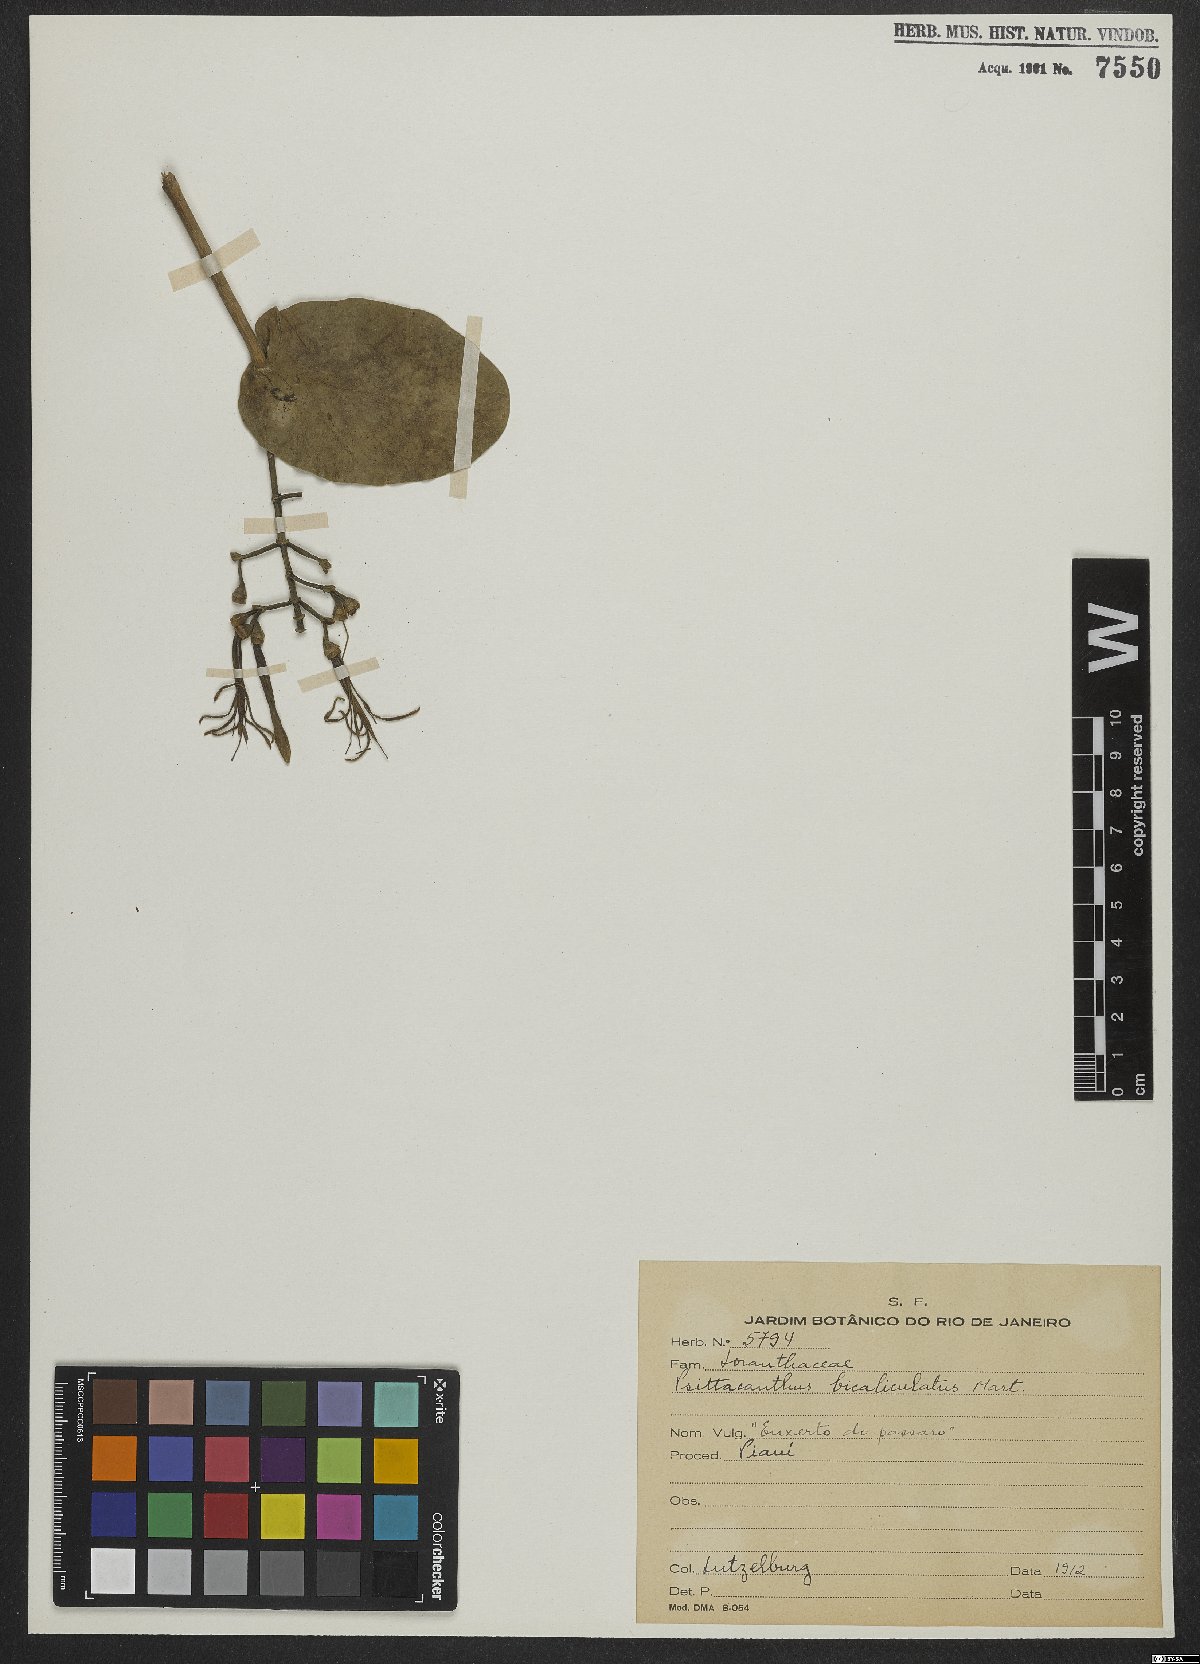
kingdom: Plantae
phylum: Tracheophyta
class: Magnoliopsida
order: Santalales
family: Loranthaceae
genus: Psittacanthus
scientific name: Psittacanthus cordatus
